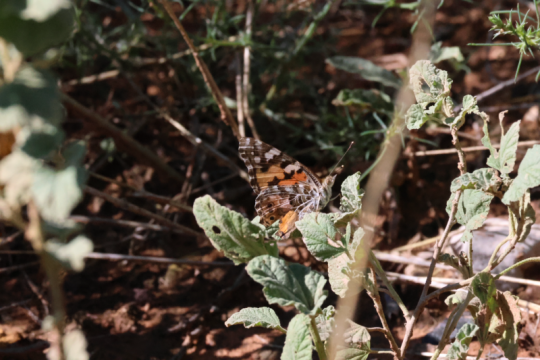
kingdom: Animalia
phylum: Arthropoda
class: Insecta
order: Lepidoptera
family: Nymphalidae
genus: Vanessa
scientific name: Vanessa cardui
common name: Painted Lady
